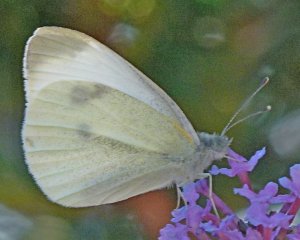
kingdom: Animalia
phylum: Arthropoda
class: Insecta
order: Lepidoptera
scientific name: Lepidoptera
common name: Butterflies
